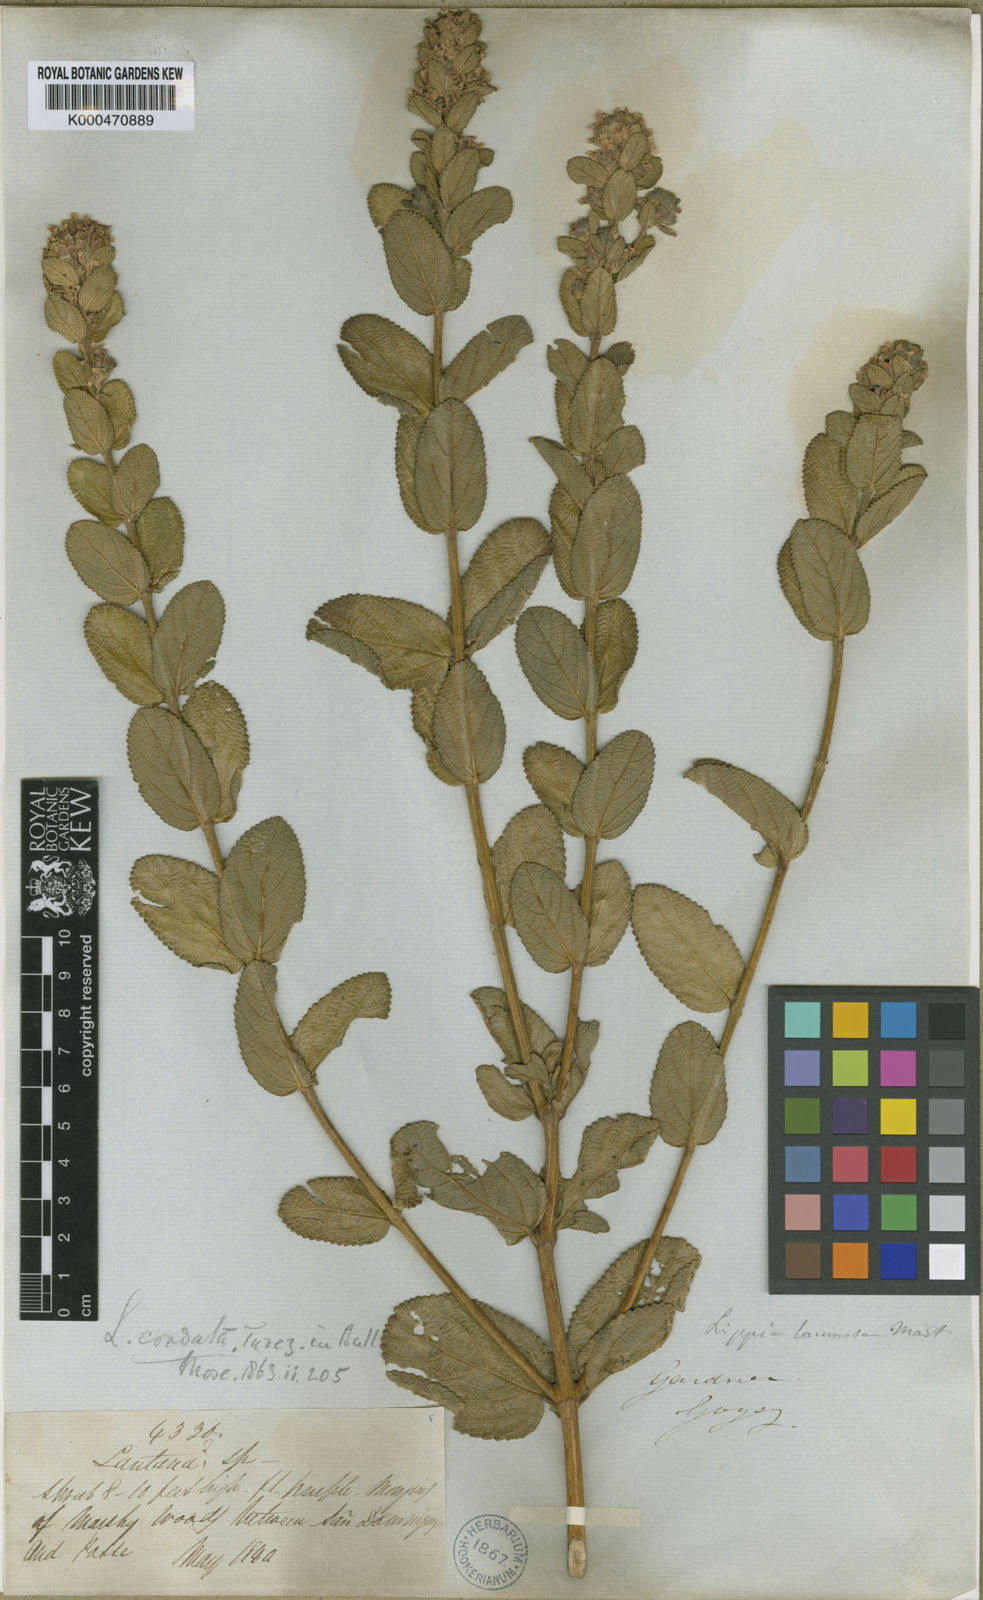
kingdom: Plantae
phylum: Tracheophyta
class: Magnoliopsida
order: Lamiales
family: Verbenaceae
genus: Lippia
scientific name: Lippia lacunosa
